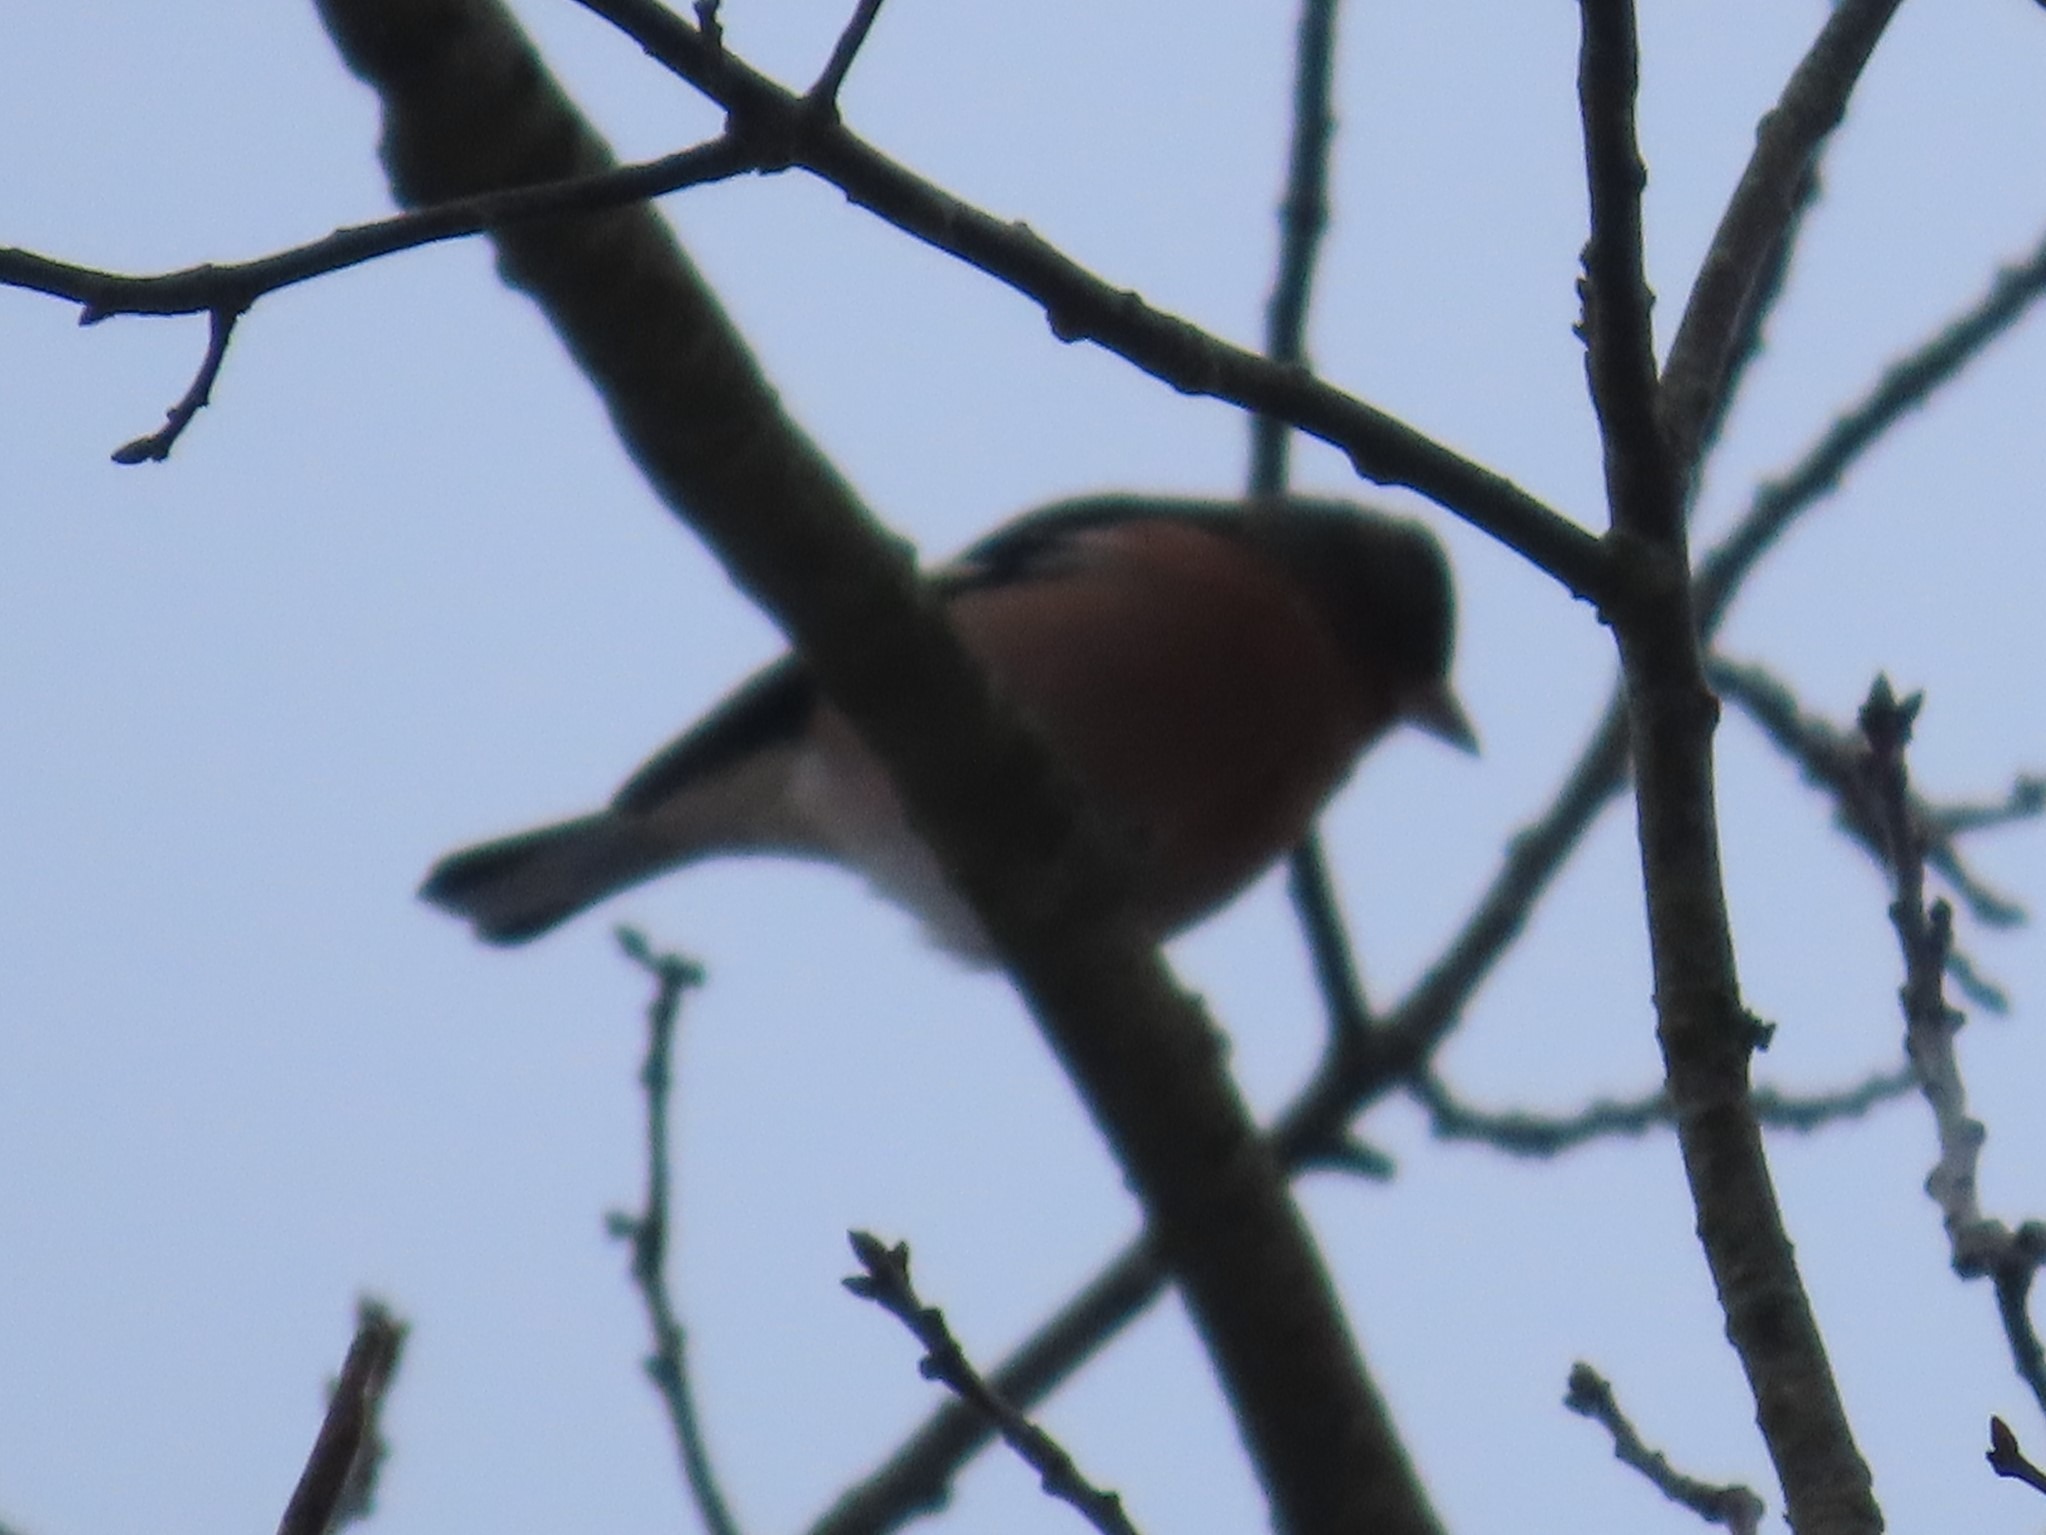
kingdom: Animalia
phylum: Chordata
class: Aves
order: Passeriformes
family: Fringillidae
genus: Fringilla
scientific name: Fringilla coelebs
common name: Bogfinke
